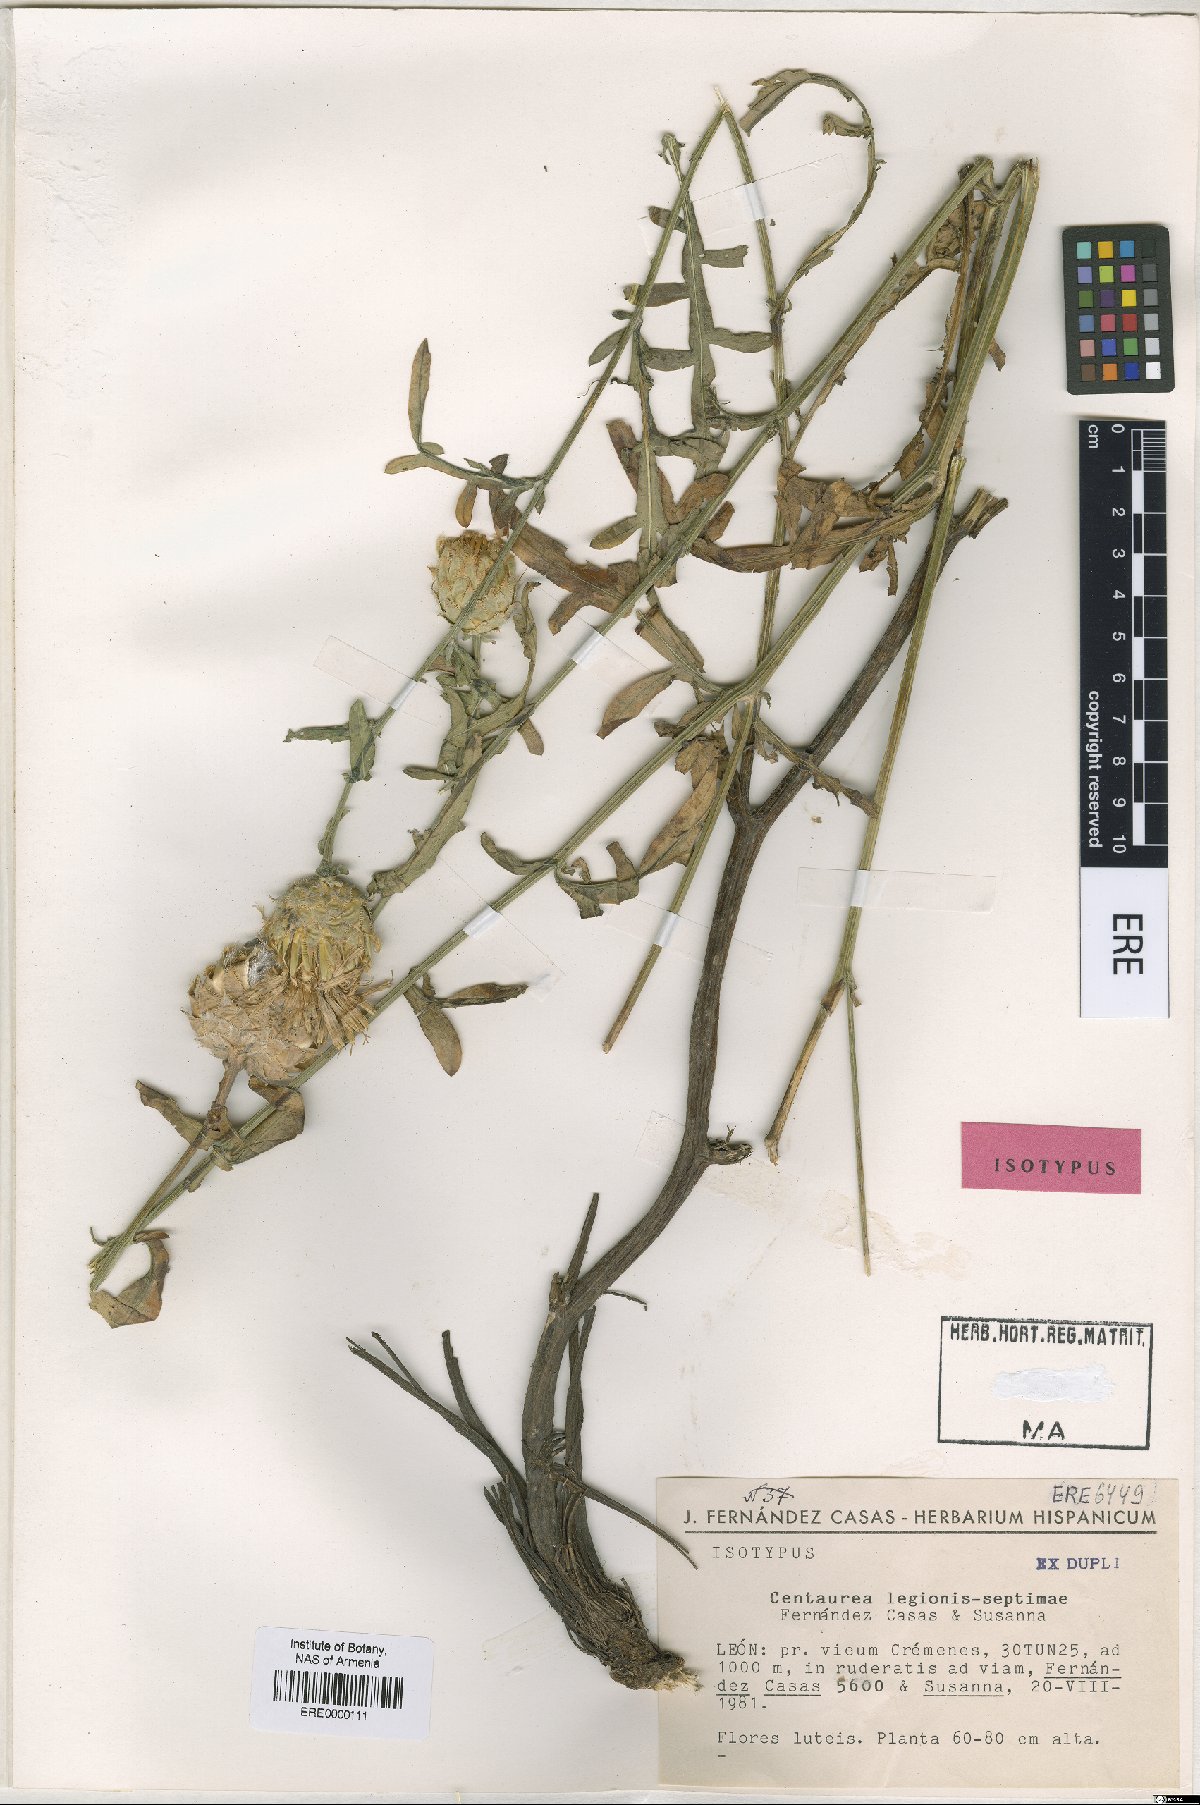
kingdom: Plantae
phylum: Tracheophyta
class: Magnoliopsida
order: Asterales
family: Asteraceae
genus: Centaurea
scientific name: Centaurea legionis-septimae
